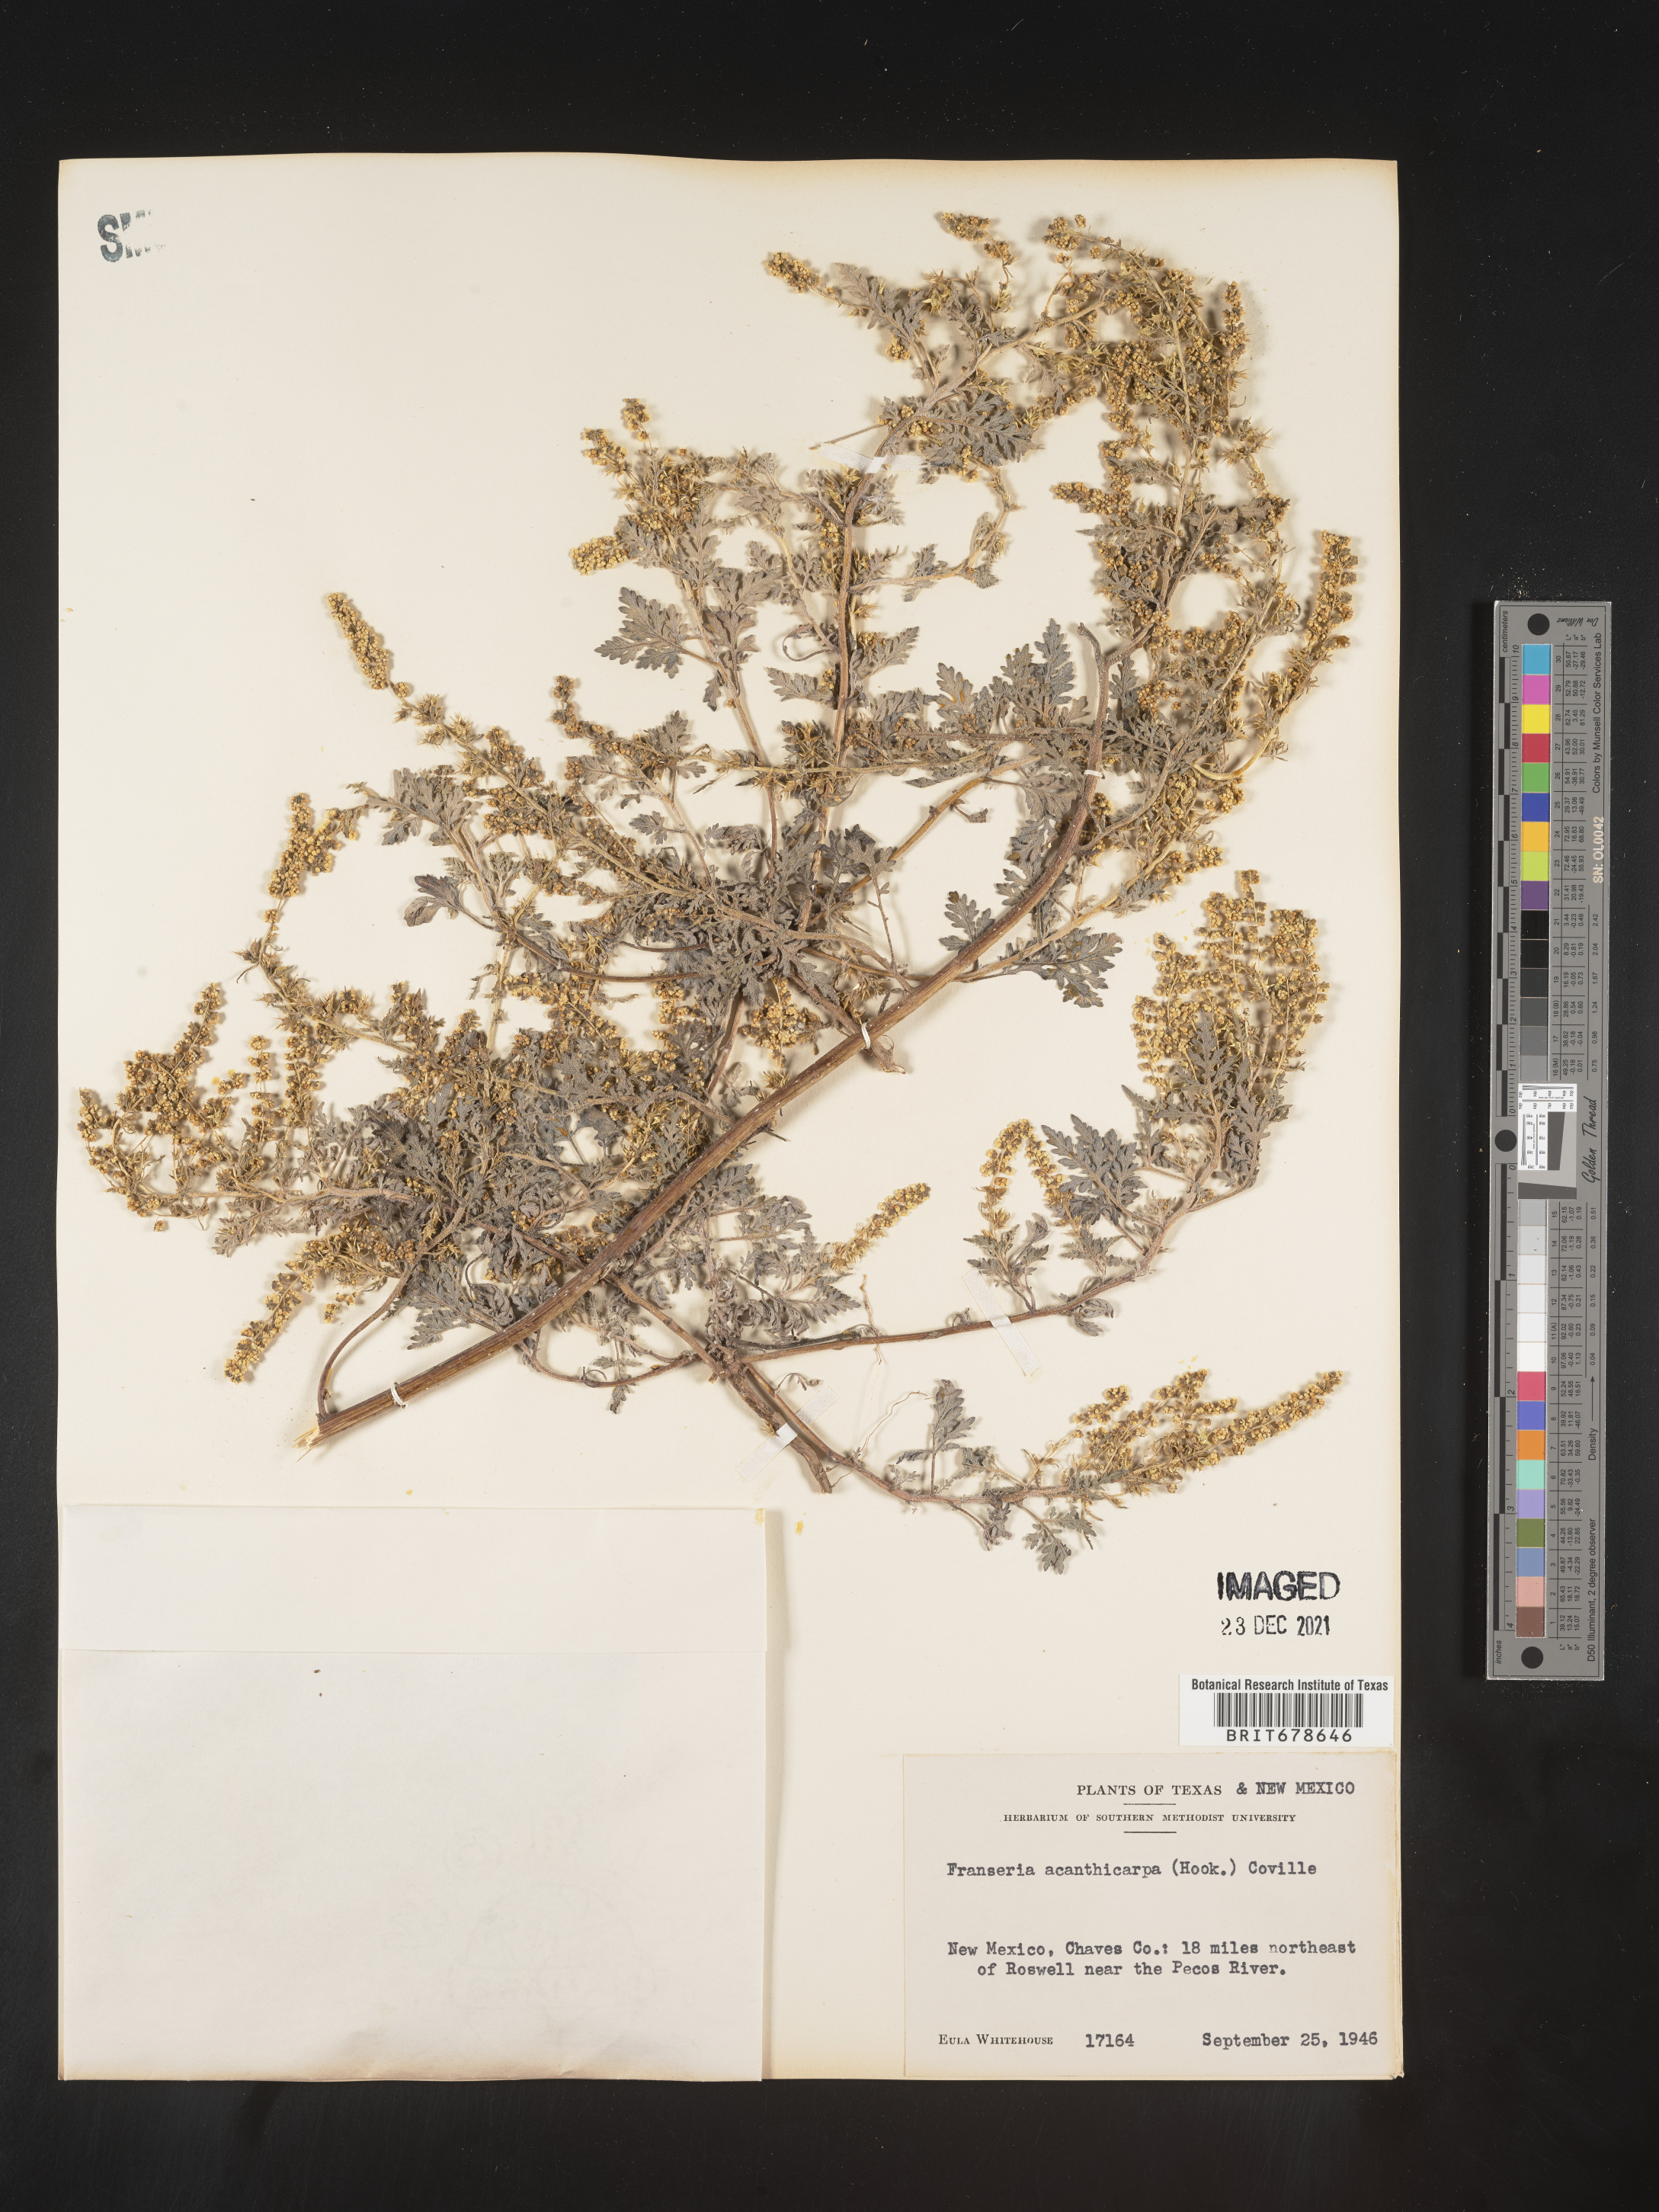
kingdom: Plantae
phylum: Tracheophyta
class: Magnoliopsida
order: Asterales
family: Asteraceae
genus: Ambrosia
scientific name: Ambrosia acanthicarpa
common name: Hooker's bur ragweed
